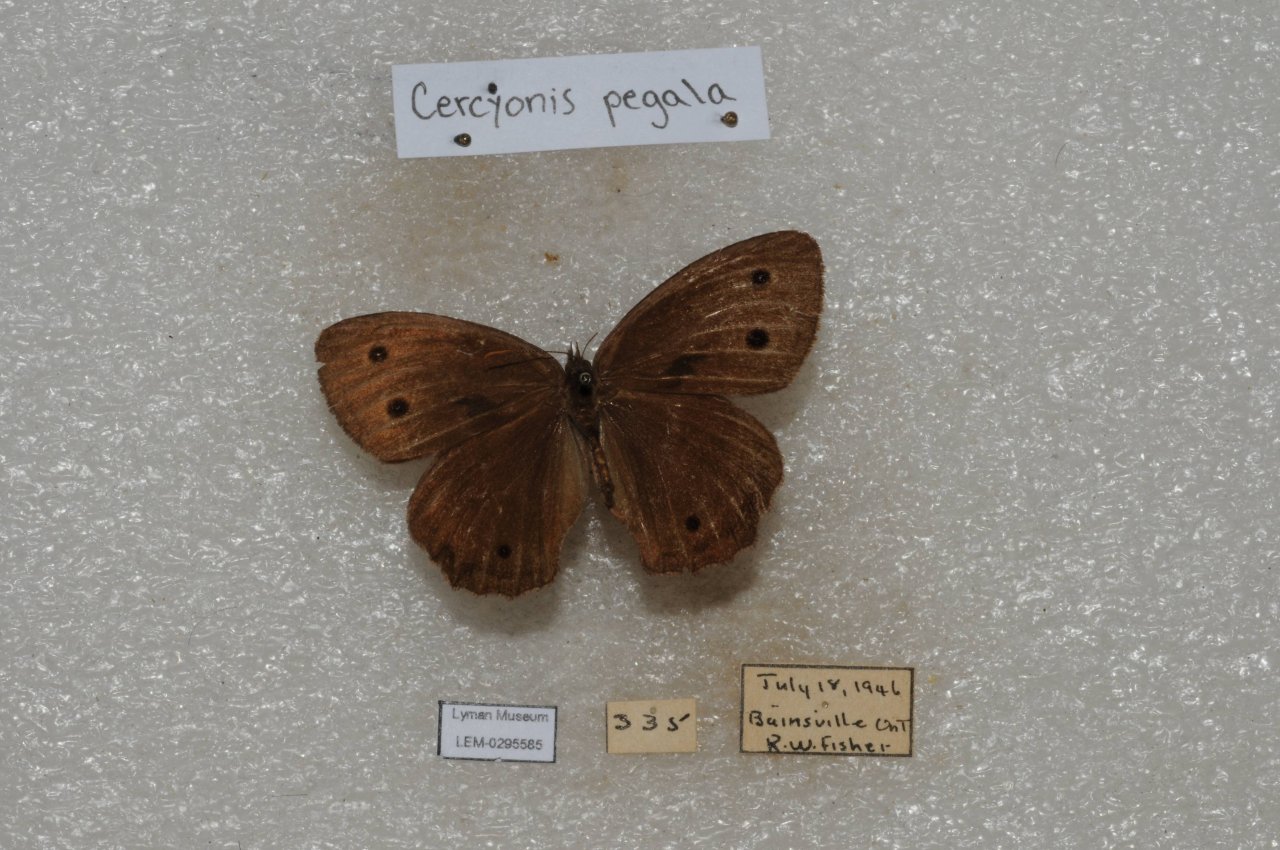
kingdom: Animalia
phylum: Arthropoda
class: Insecta
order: Lepidoptera
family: Nymphalidae
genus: Cercyonis
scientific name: Cercyonis pegala
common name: Common Wood-Nymph
